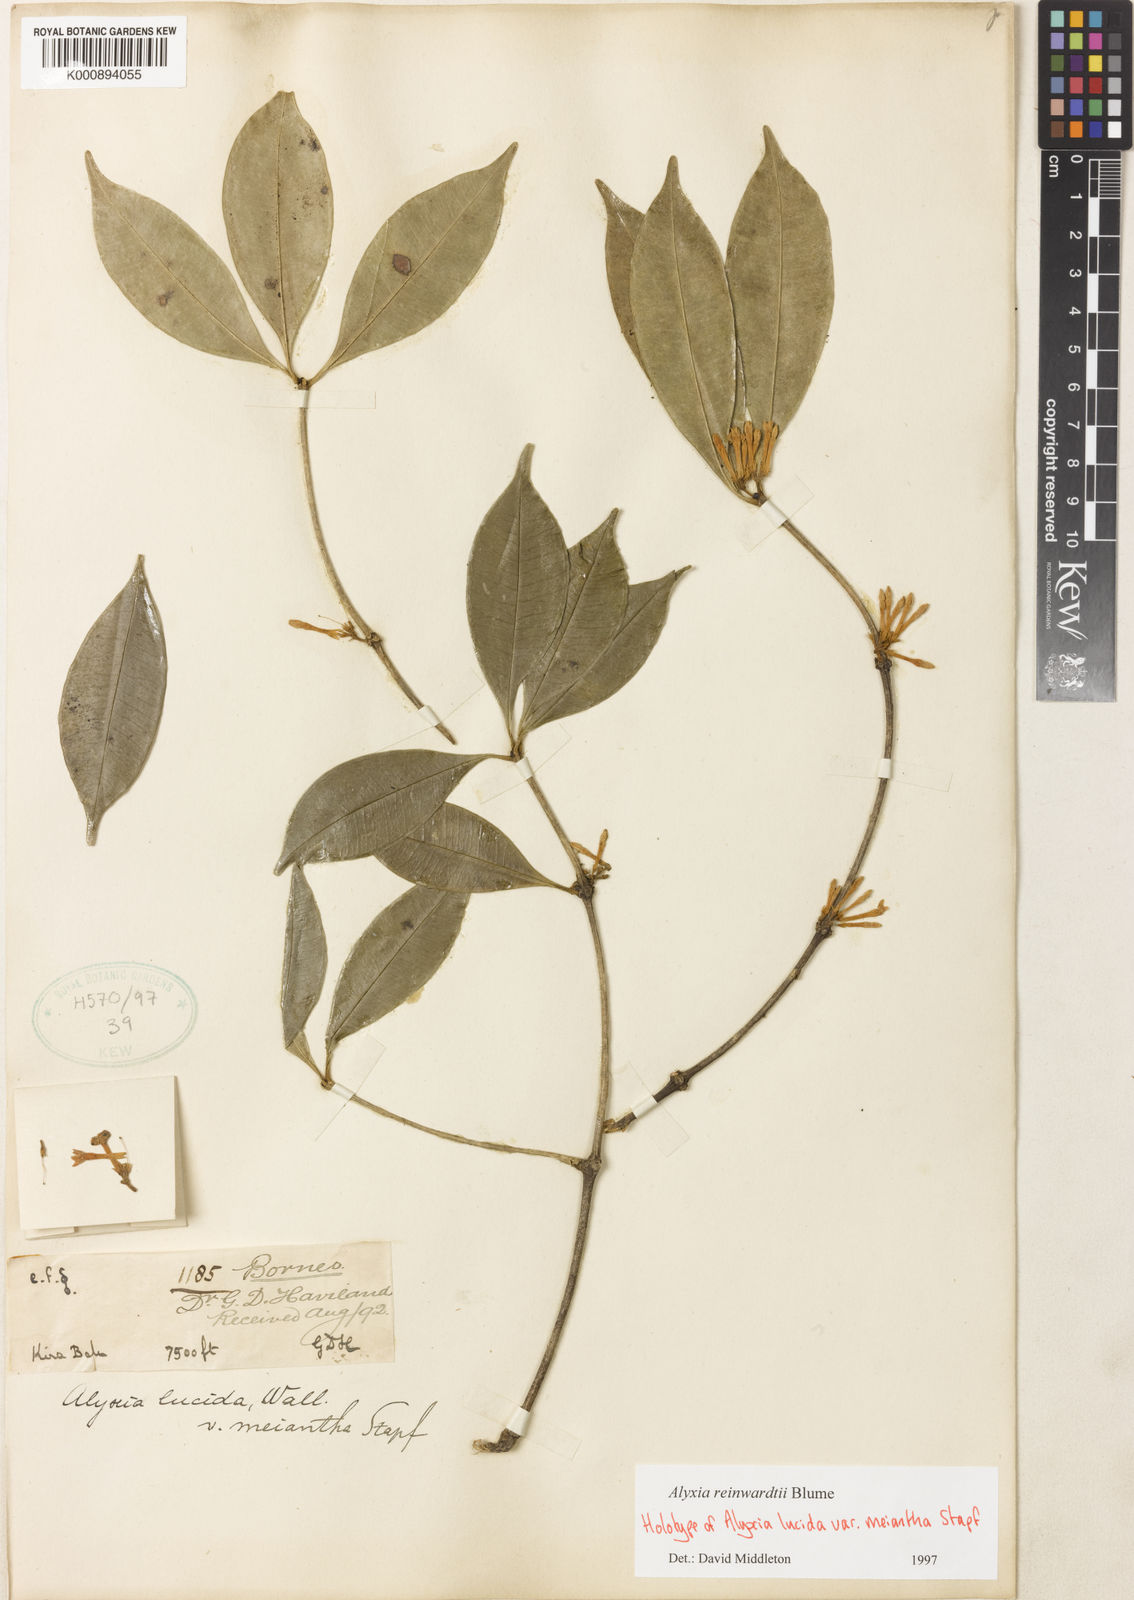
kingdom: Plantae
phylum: Tracheophyta
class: Magnoliopsida
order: Gentianales
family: Apocynaceae
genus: Alyxia
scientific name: Alyxia reinwardtii
